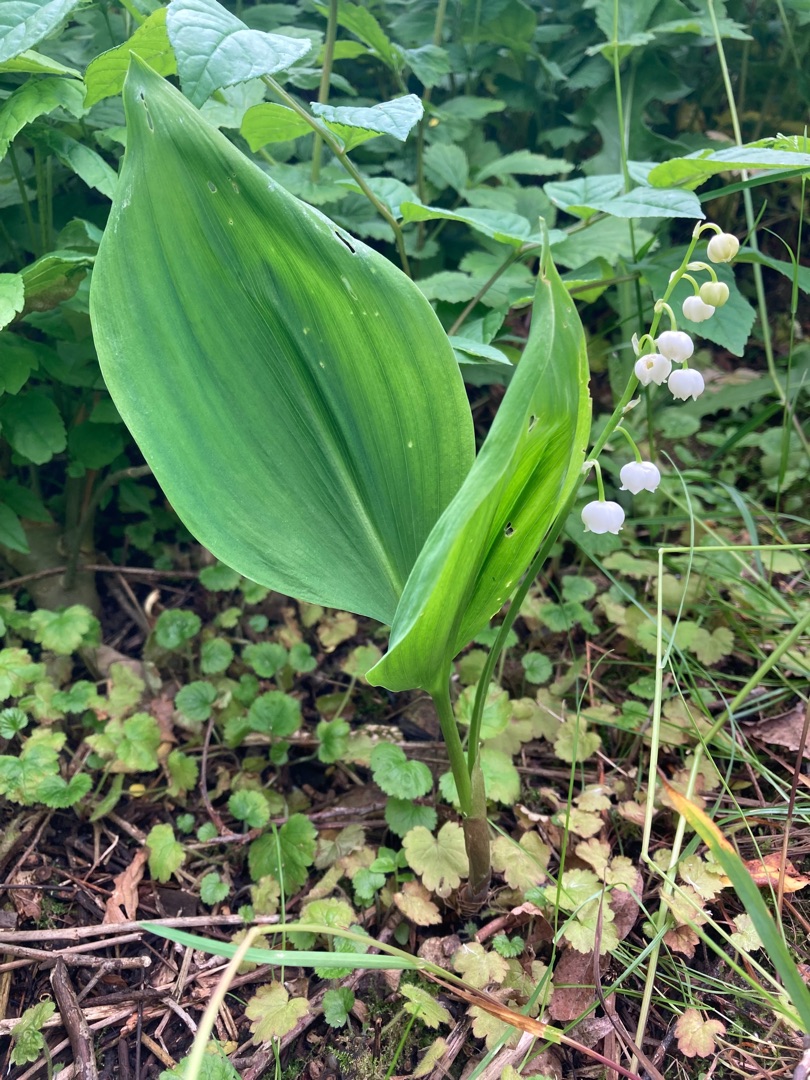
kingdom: Plantae
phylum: Tracheophyta
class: Liliopsida
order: Asparagales
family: Asparagaceae
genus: Convallaria
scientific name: Convallaria majalis
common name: Liljekonval
